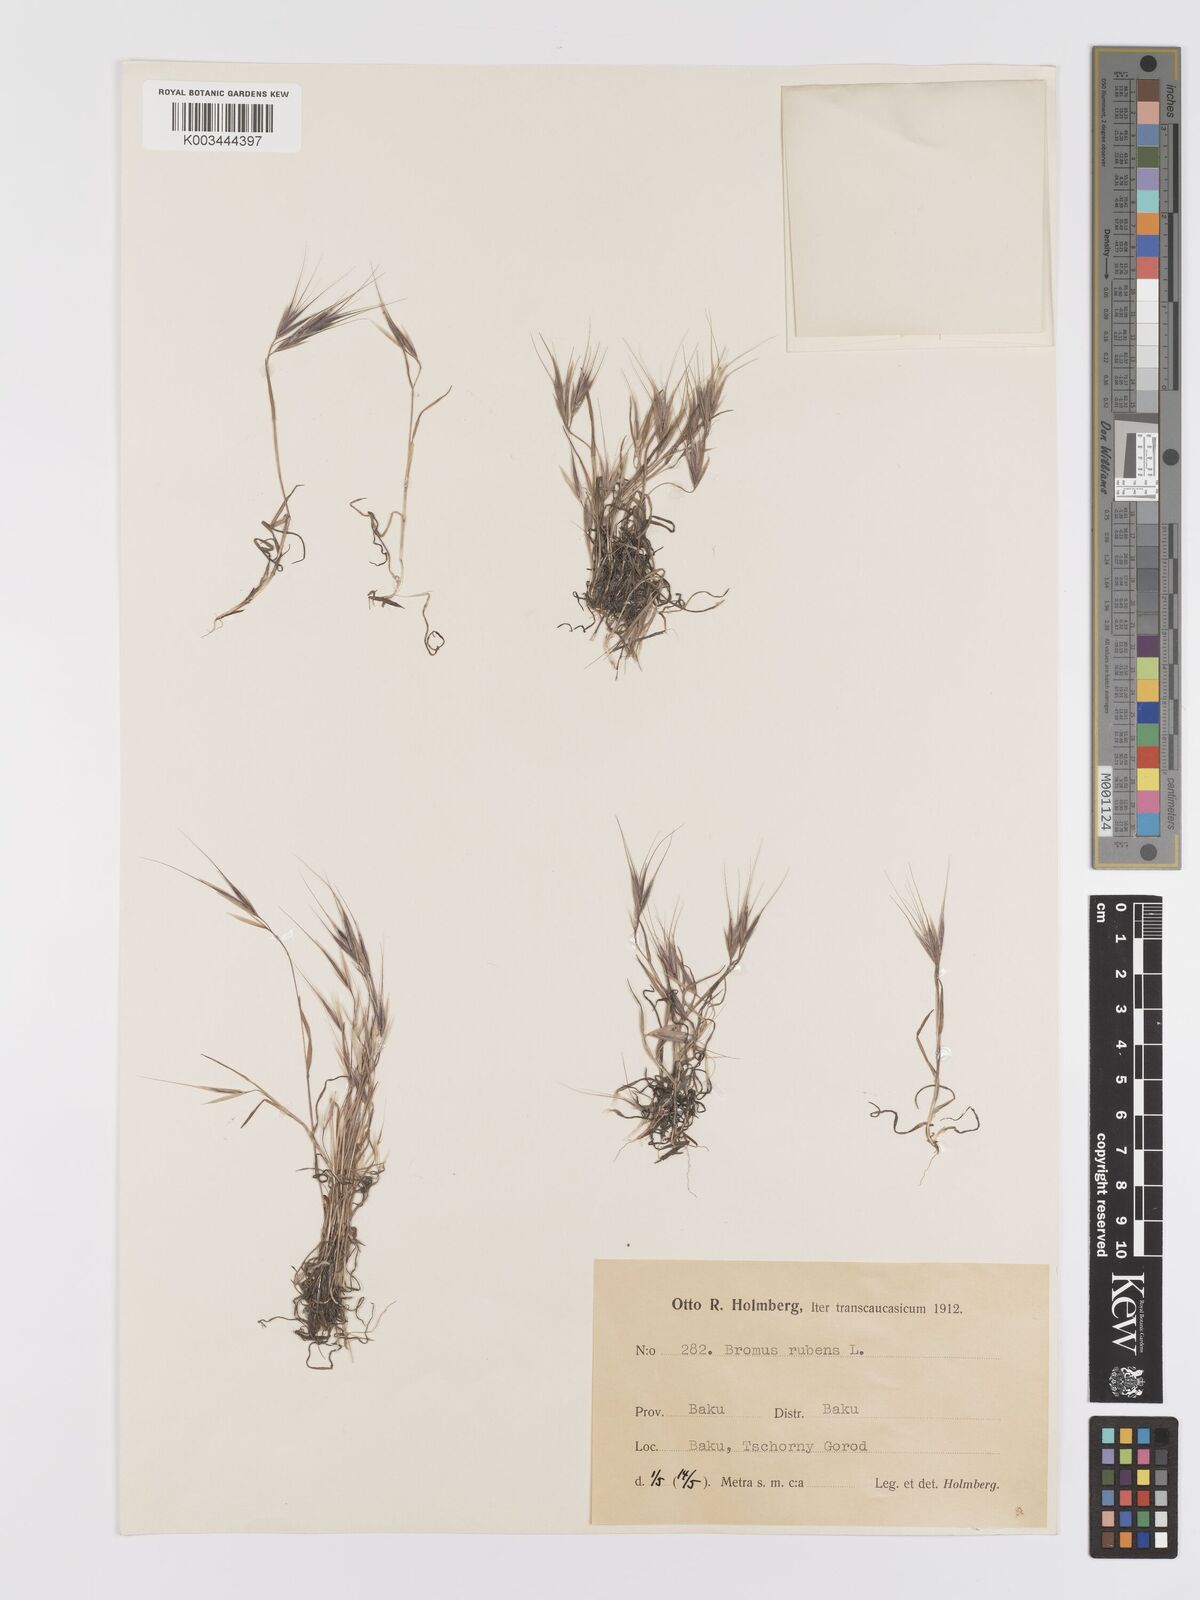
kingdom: Plantae
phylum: Tracheophyta
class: Liliopsida
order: Poales
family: Poaceae
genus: Bromus
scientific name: Bromus rubens
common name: Red brome
